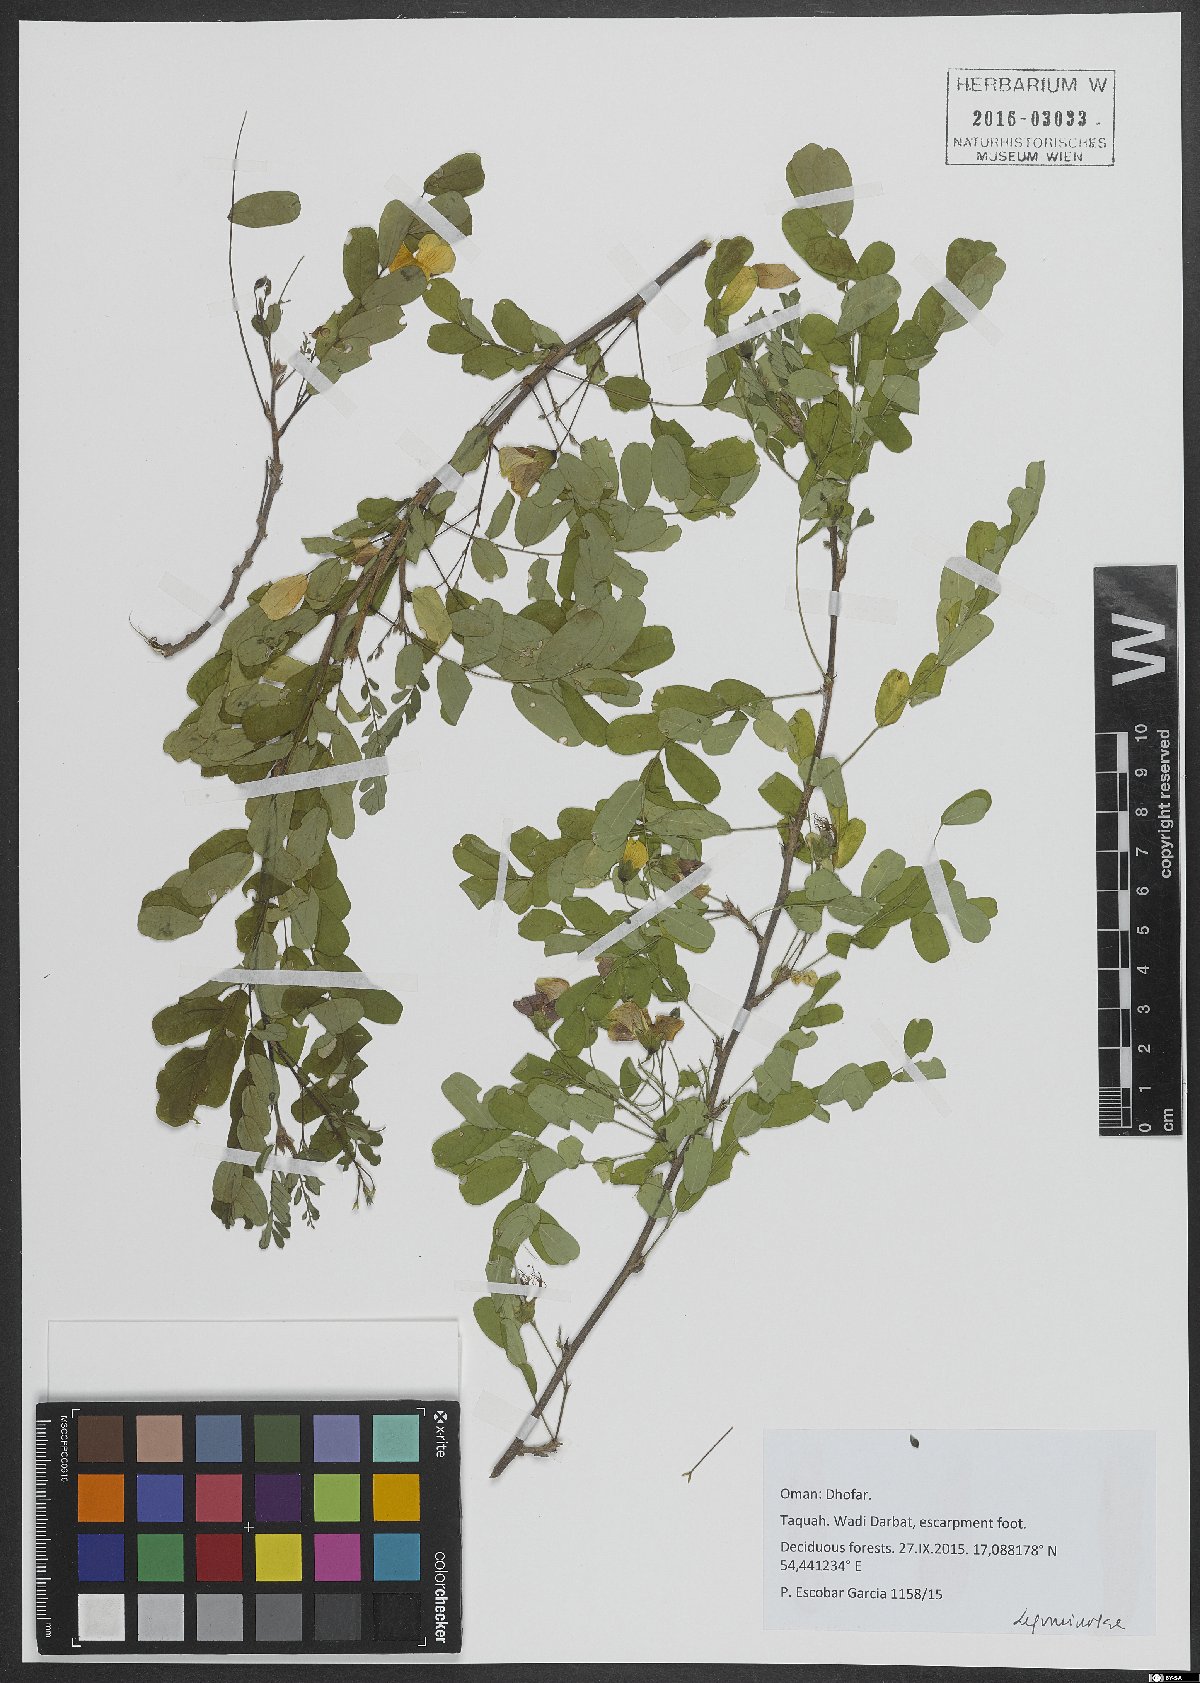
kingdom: Plantae
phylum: Tracheophyta
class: Magnoliopsida
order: Fabales
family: Fabaceae
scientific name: Fabaceae
